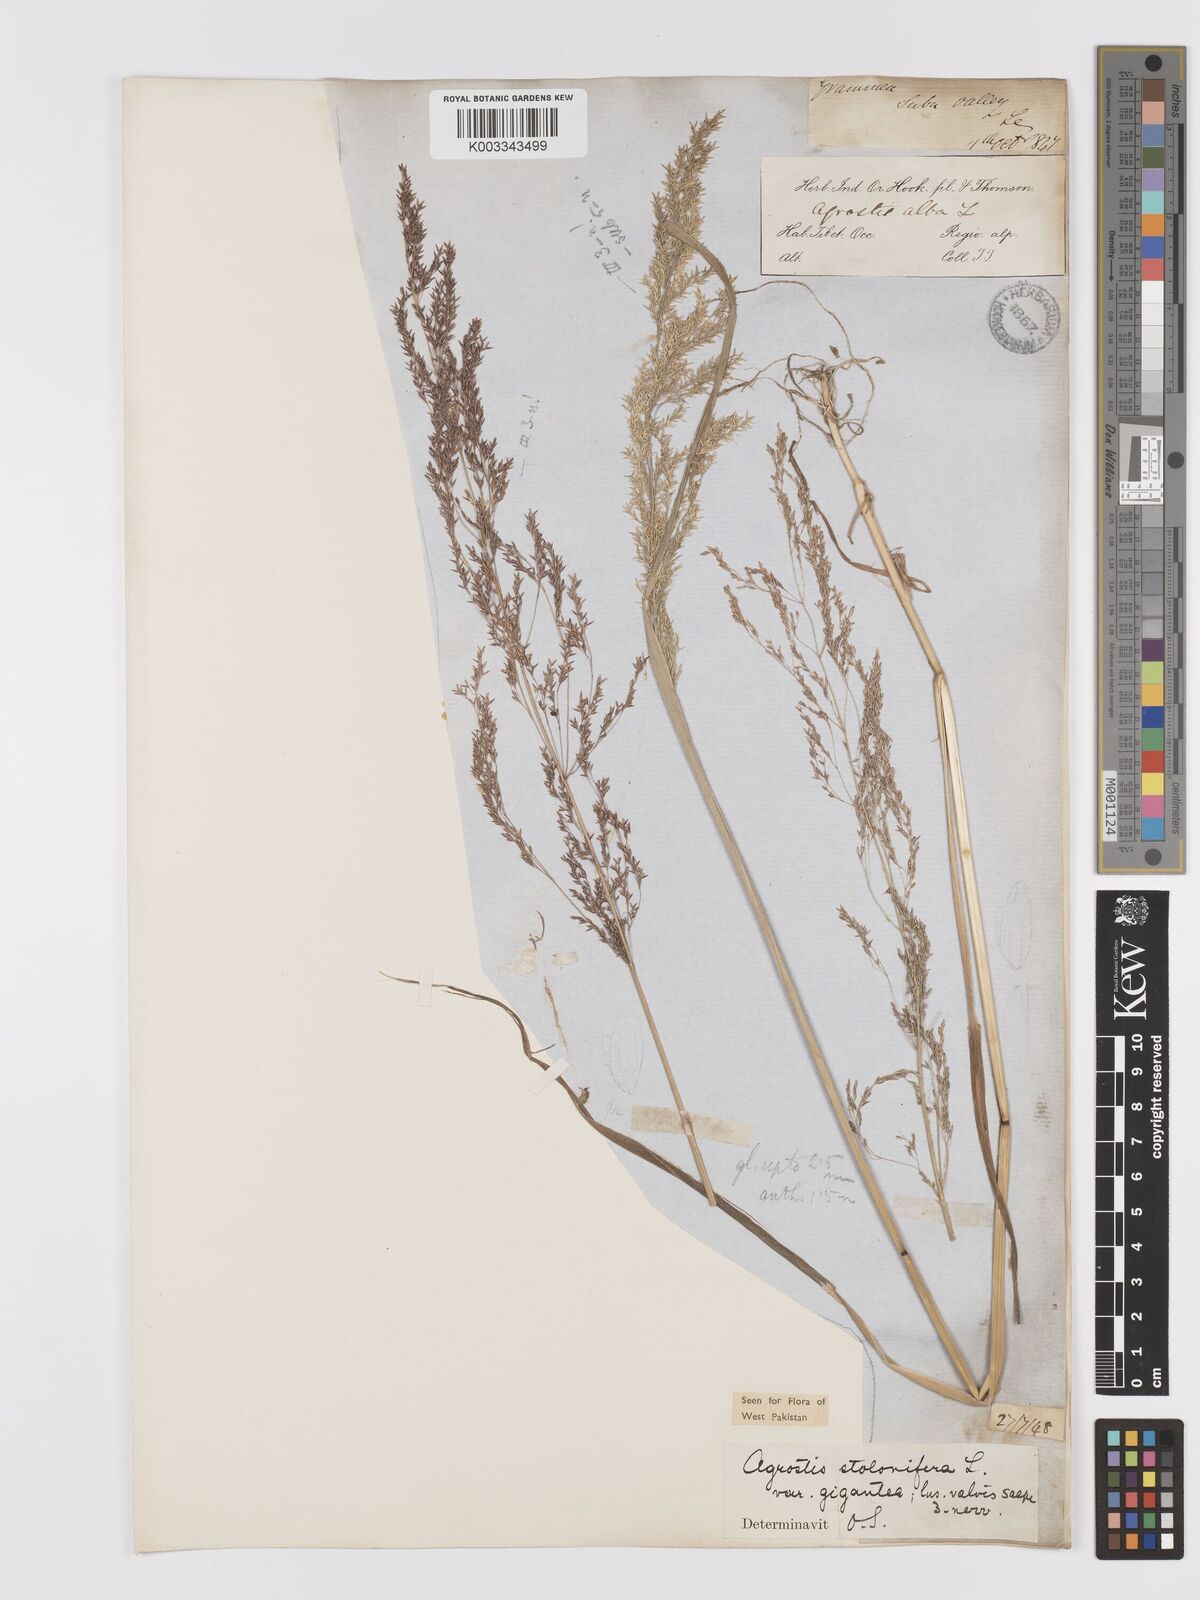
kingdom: Plantae
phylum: Tracheophyta
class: Liliopsida
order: Poales
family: Poaceae
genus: Agrostis
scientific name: Agrostis gigantea
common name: Black bent
